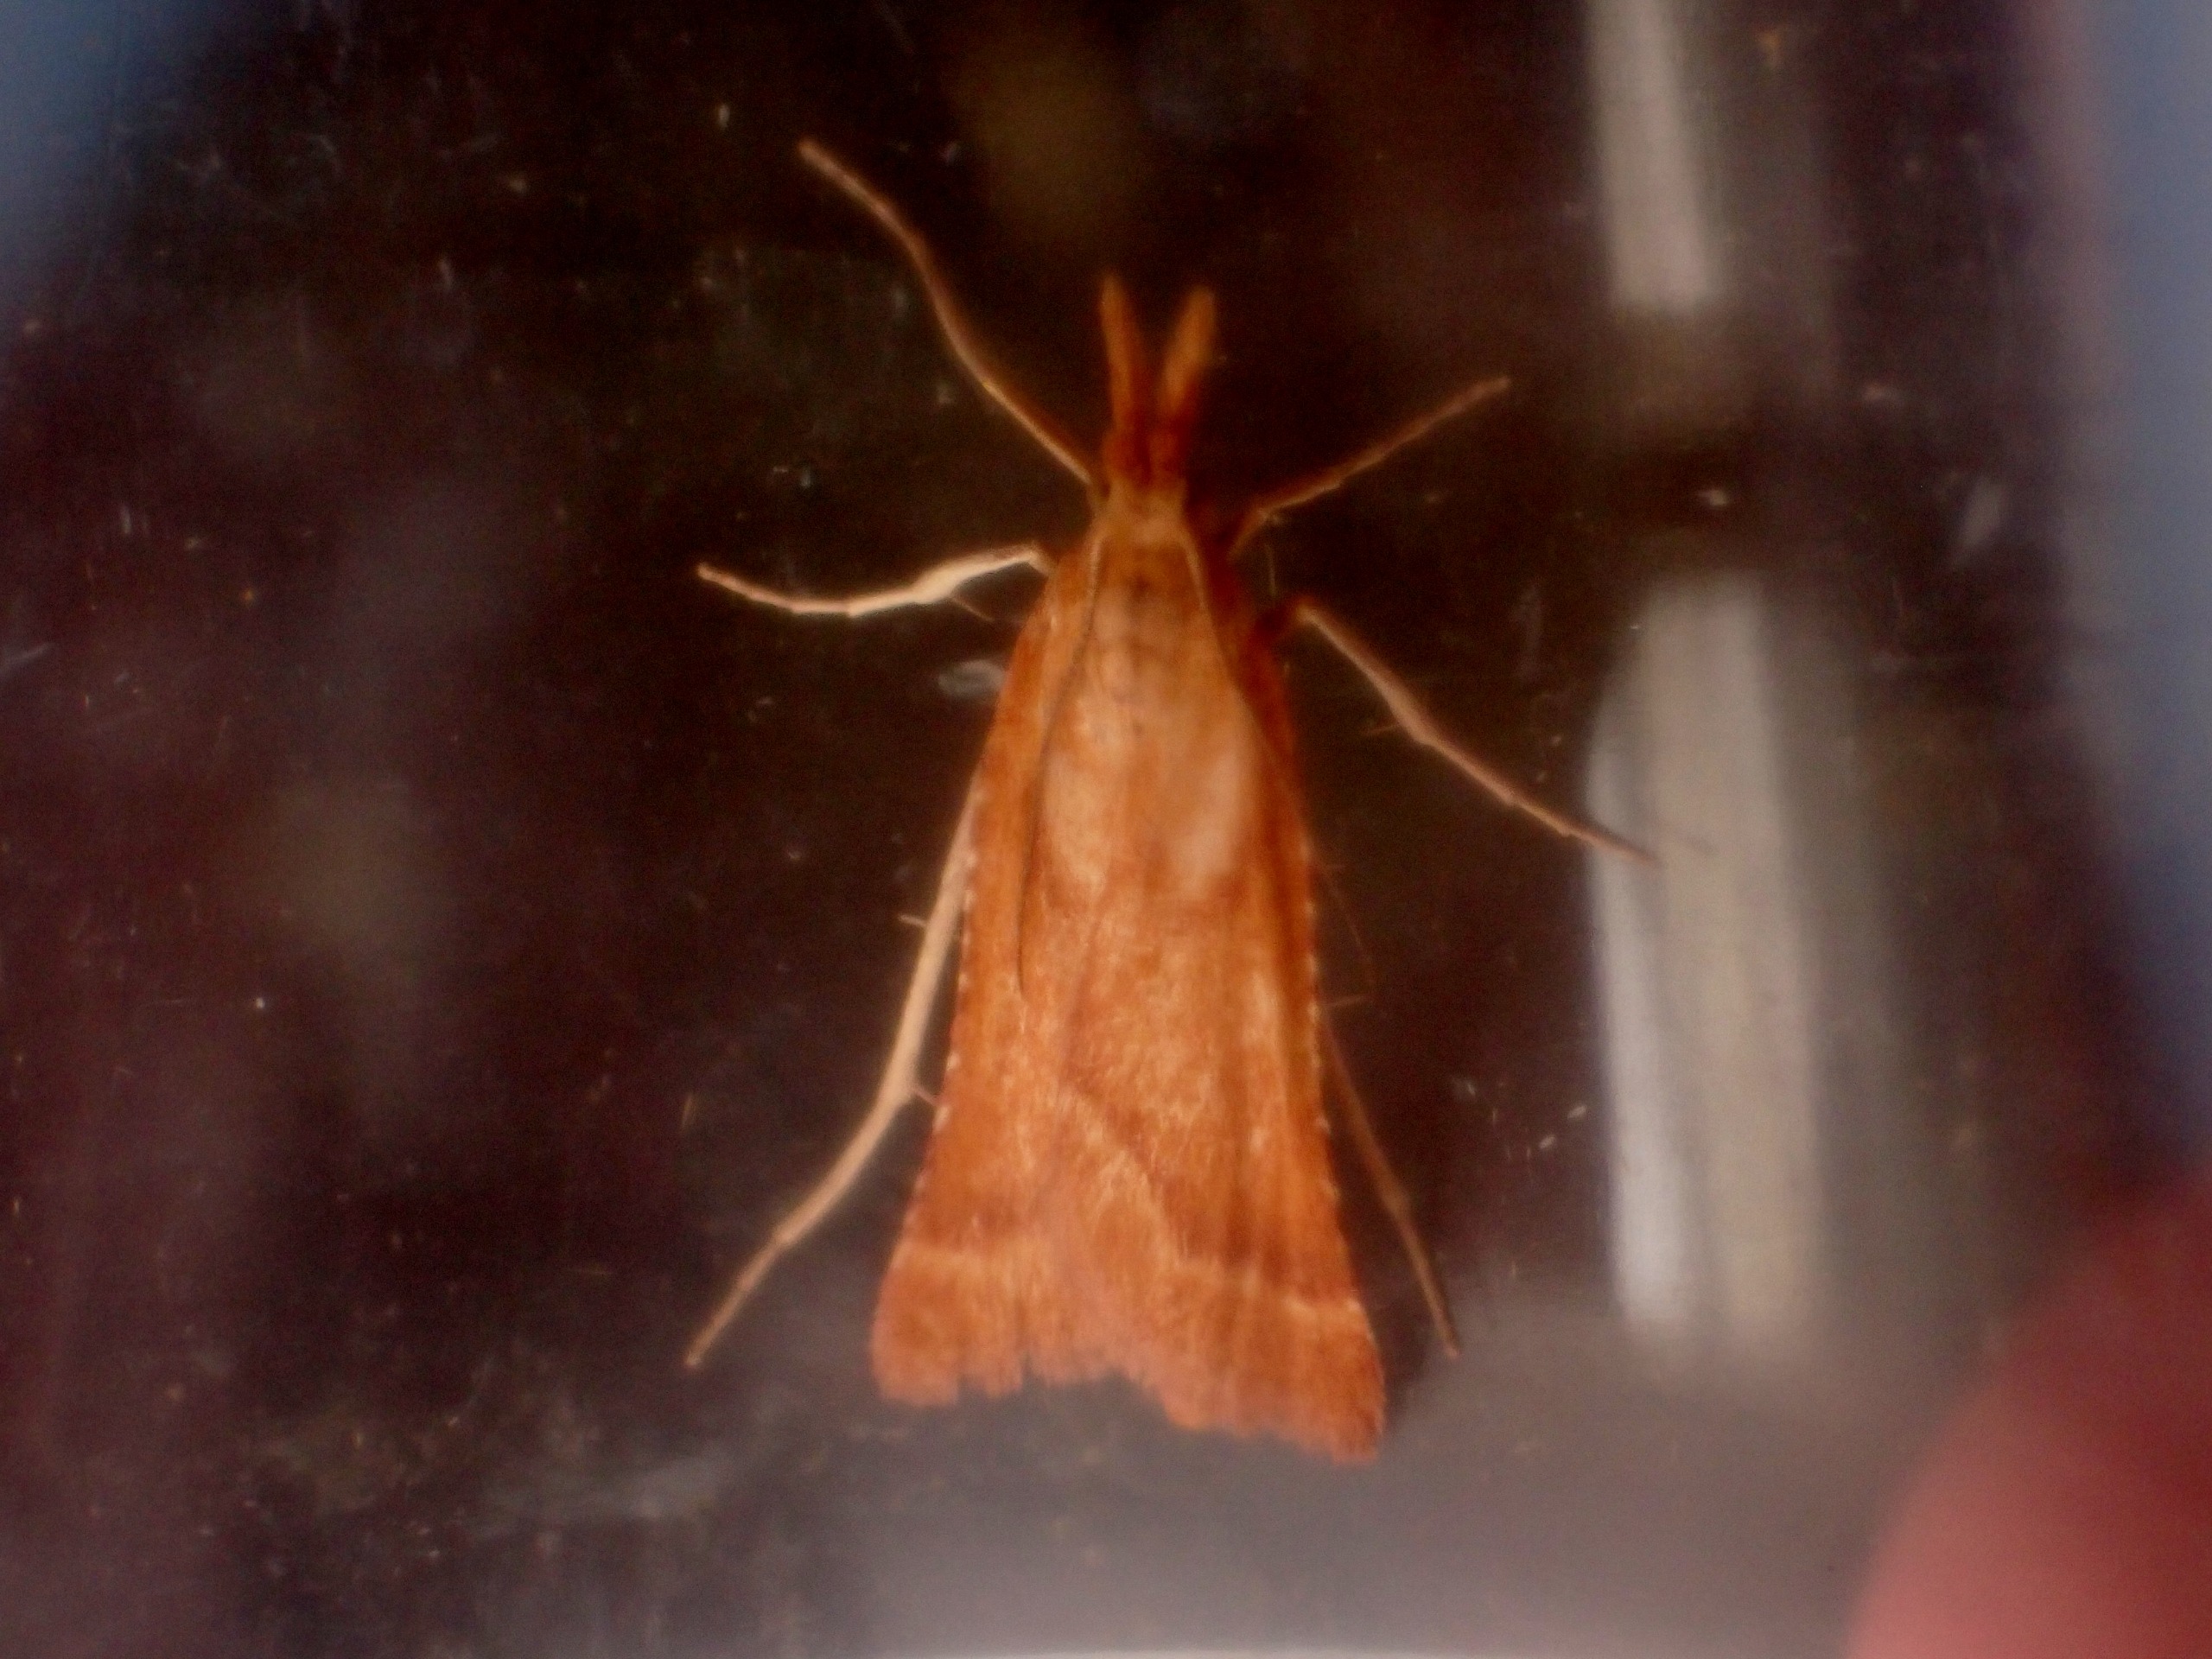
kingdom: Animalia
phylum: Arthropoda
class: Insecta
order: Lepidoptera
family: Pyralidae
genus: Synaphe
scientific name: Synaphe punctalis
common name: Spidsvinget moshalvmøl
